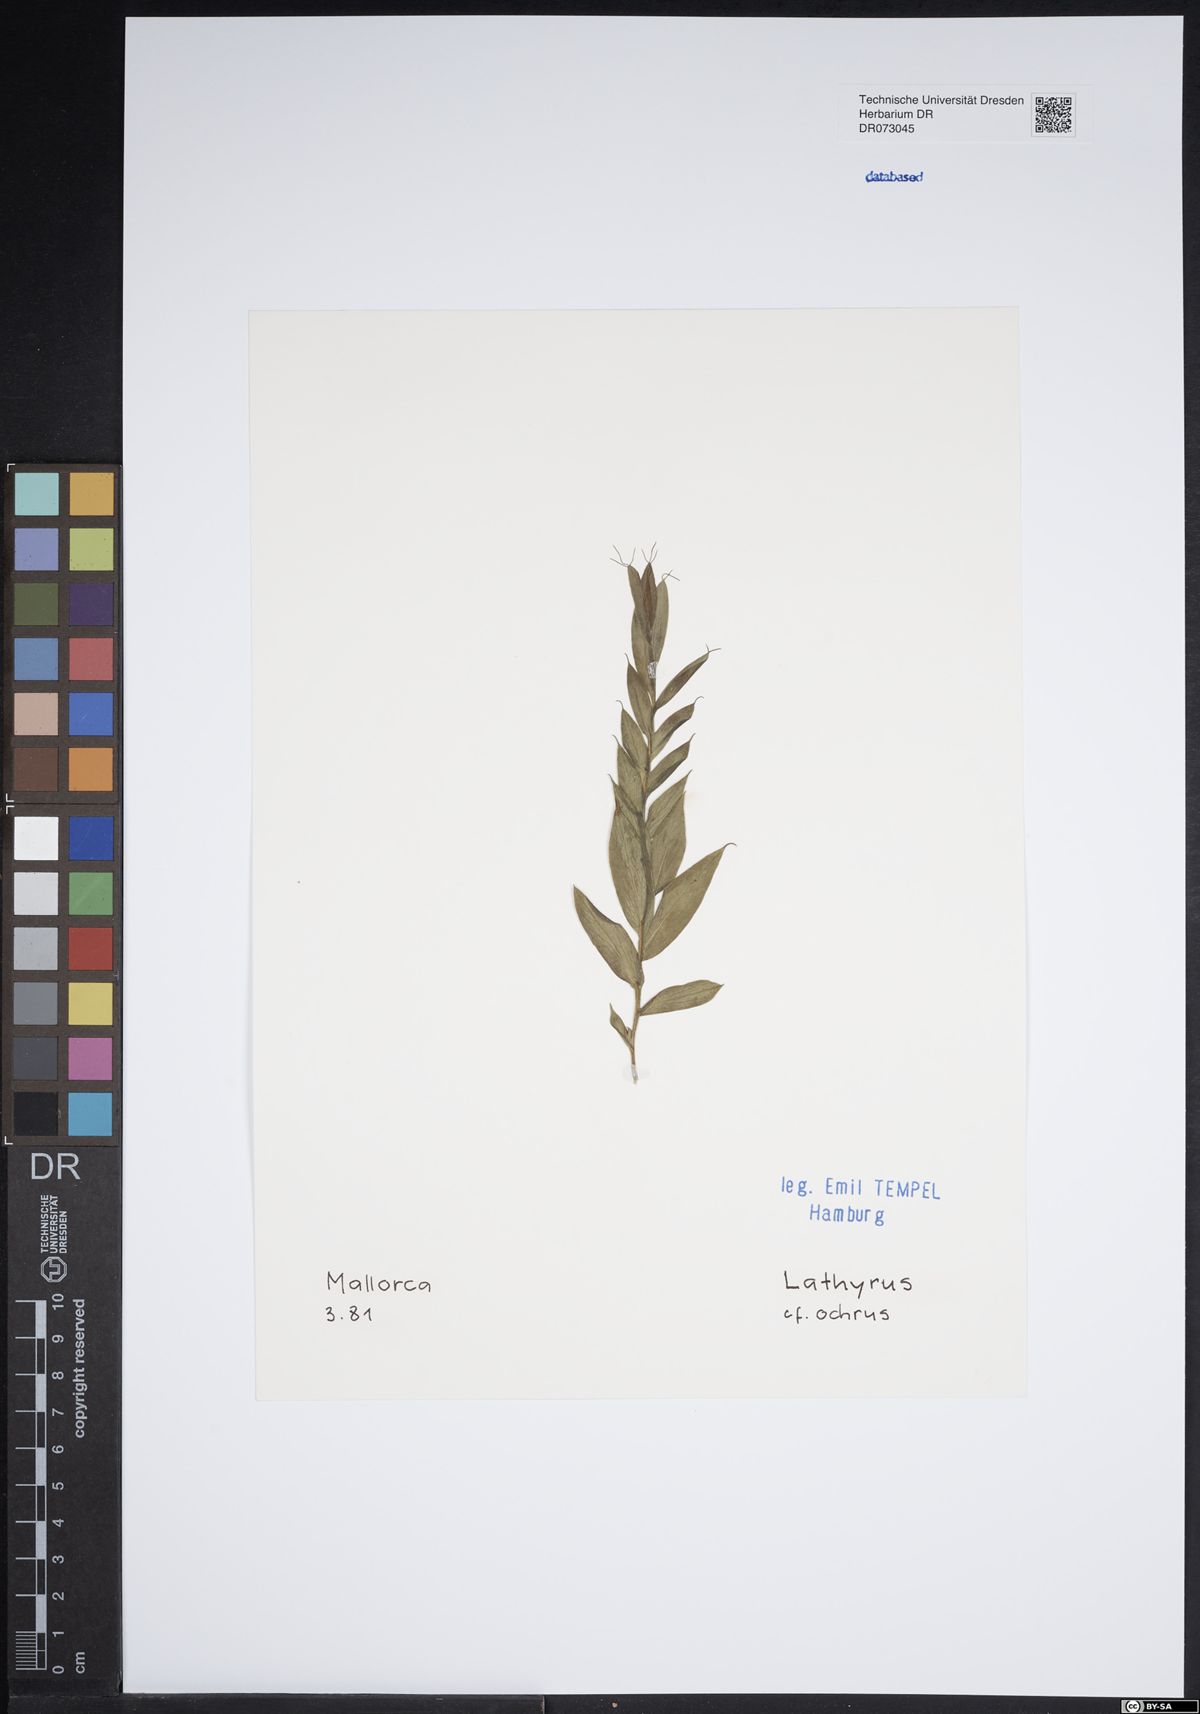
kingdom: Plantae
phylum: Tracheophyta
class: Magnoliopsida
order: Fabales
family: Fabaceae
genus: Vicia
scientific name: Vicia hybrida
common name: Hairy yellow vetch
